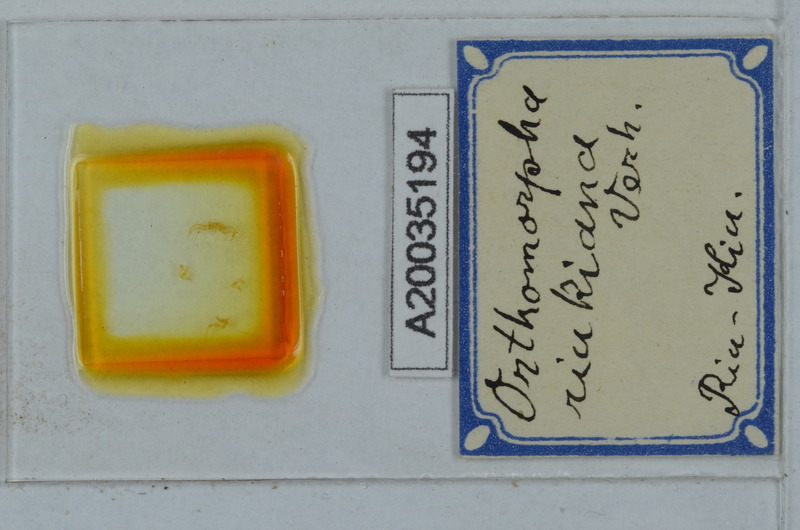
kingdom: Animalia
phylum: Arthropoda
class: Diplopoda
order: Polydesmida
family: Paradoxosomatidae
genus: Orthomorpha
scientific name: Orthomorpha
